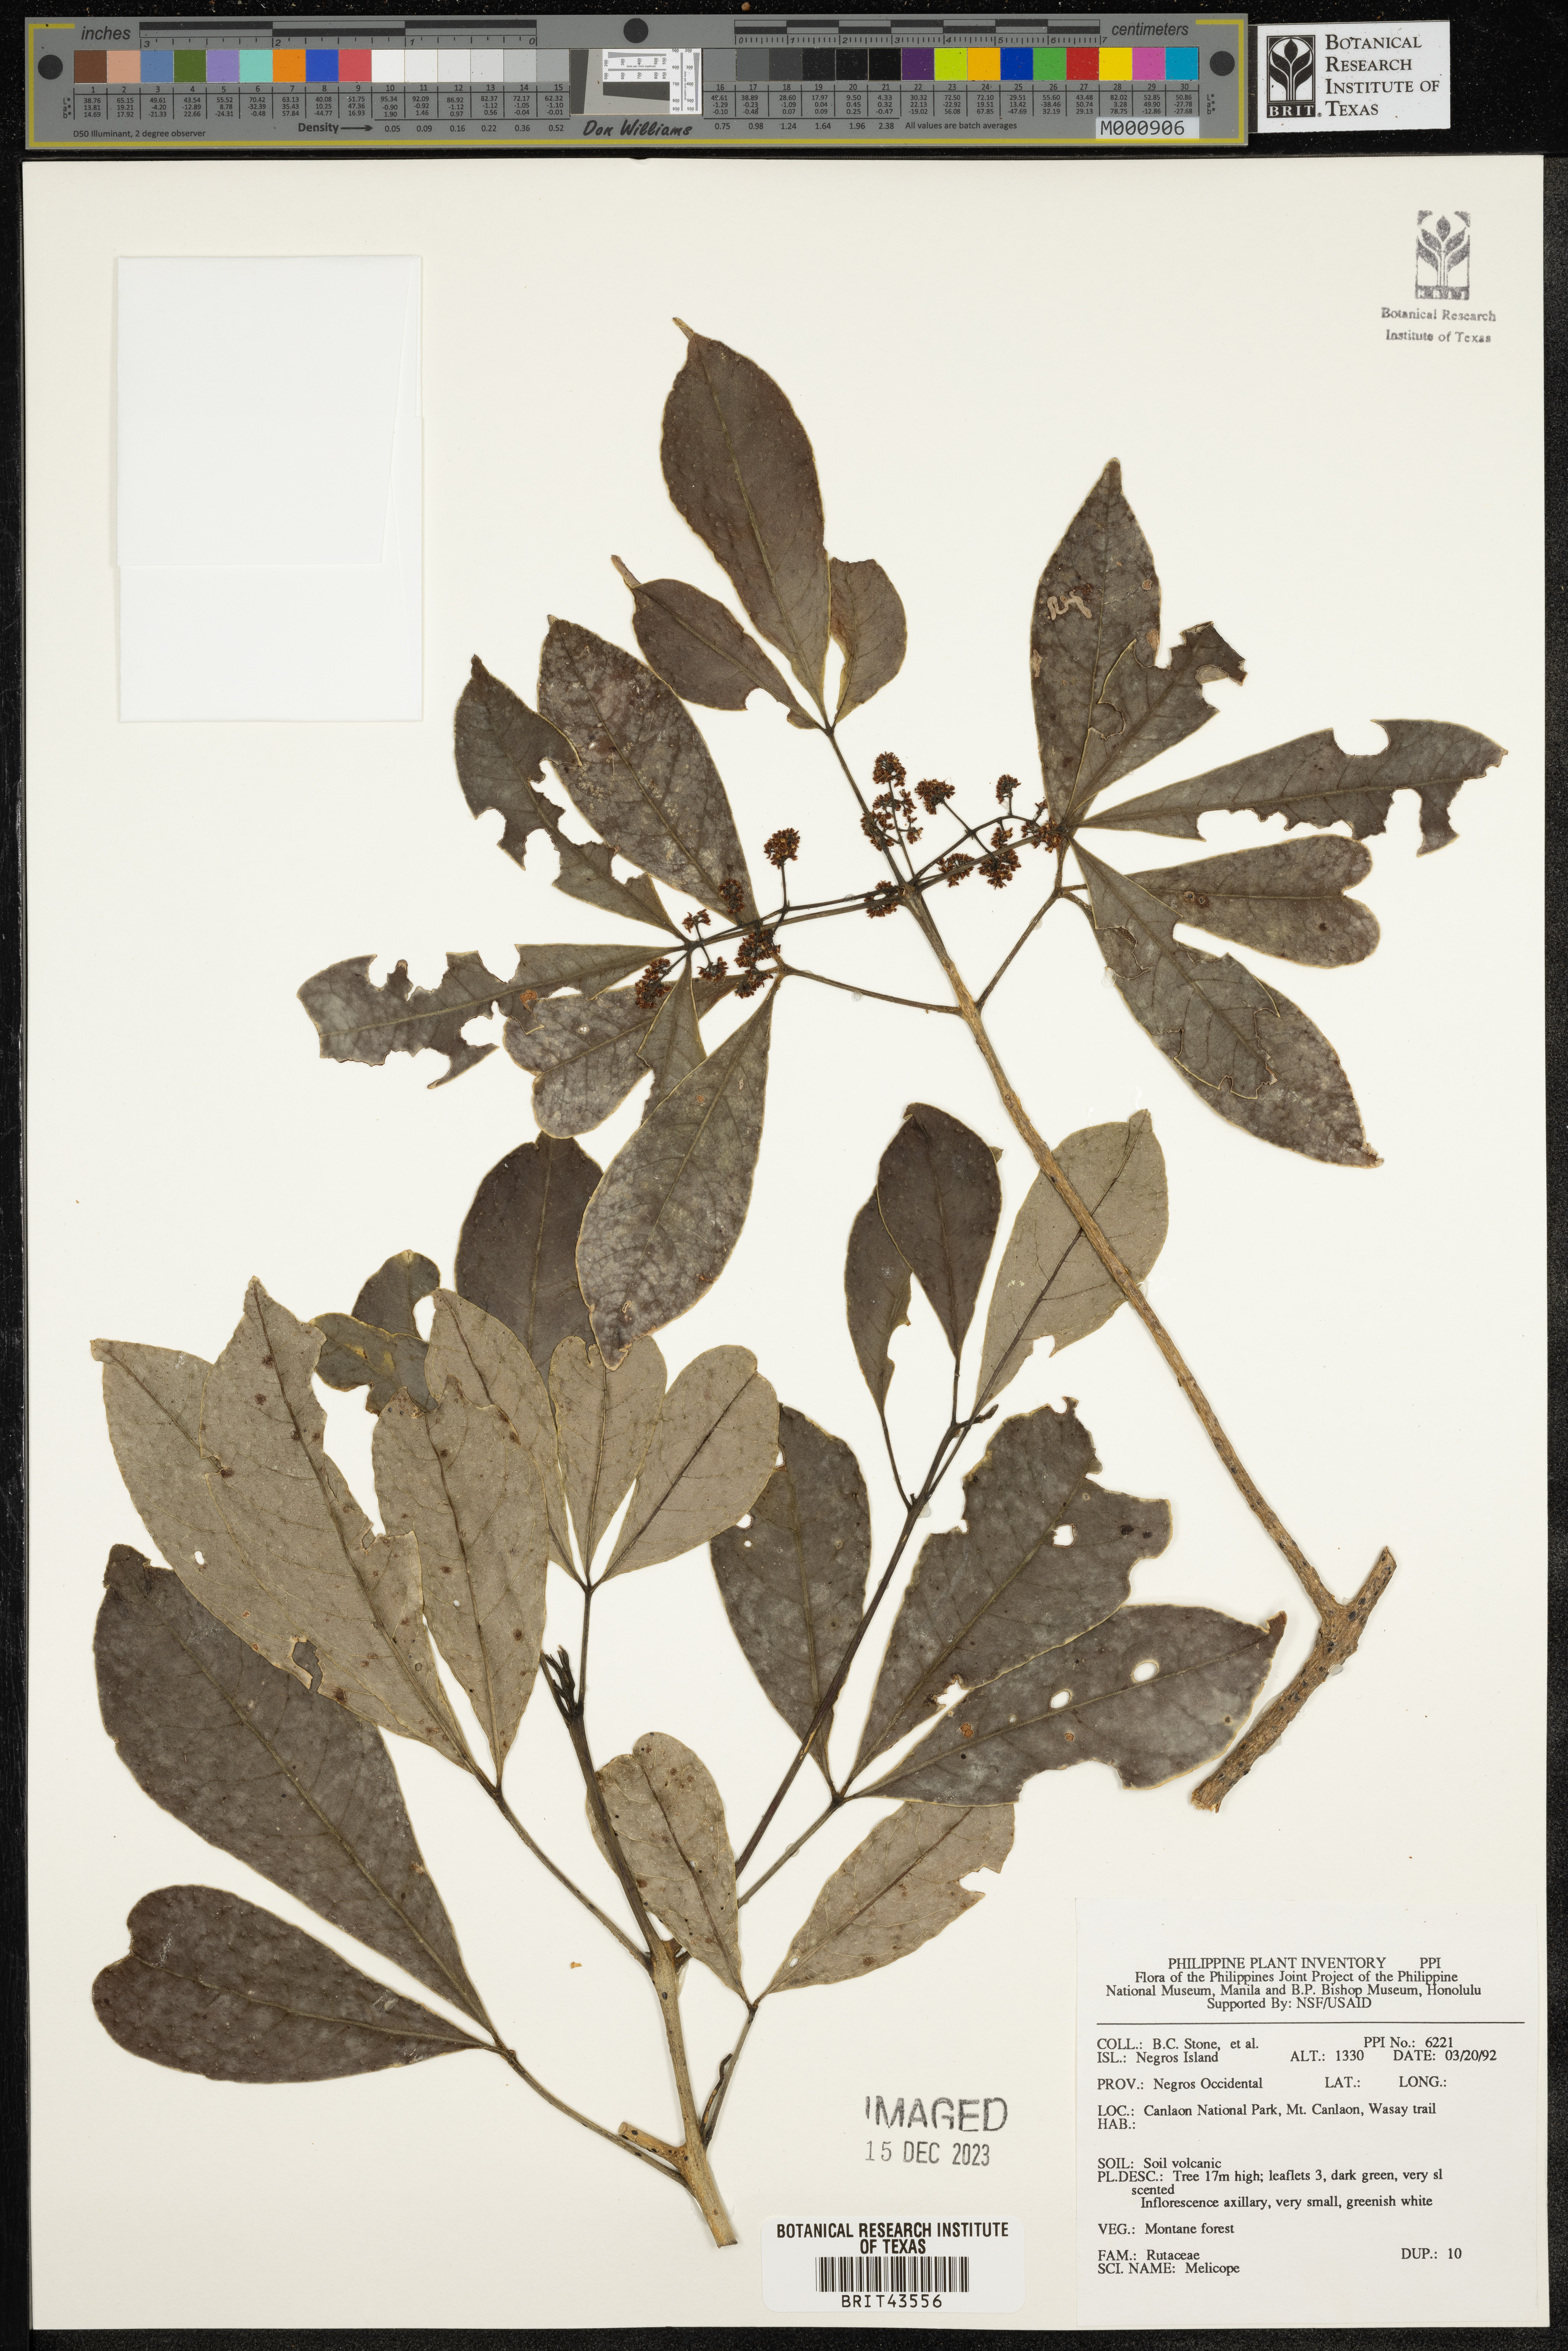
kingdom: Plantae
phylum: Tracheophyta
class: Magnoliopsida
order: Sapindales
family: Rutaceae
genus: Melicope
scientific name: Melicope
